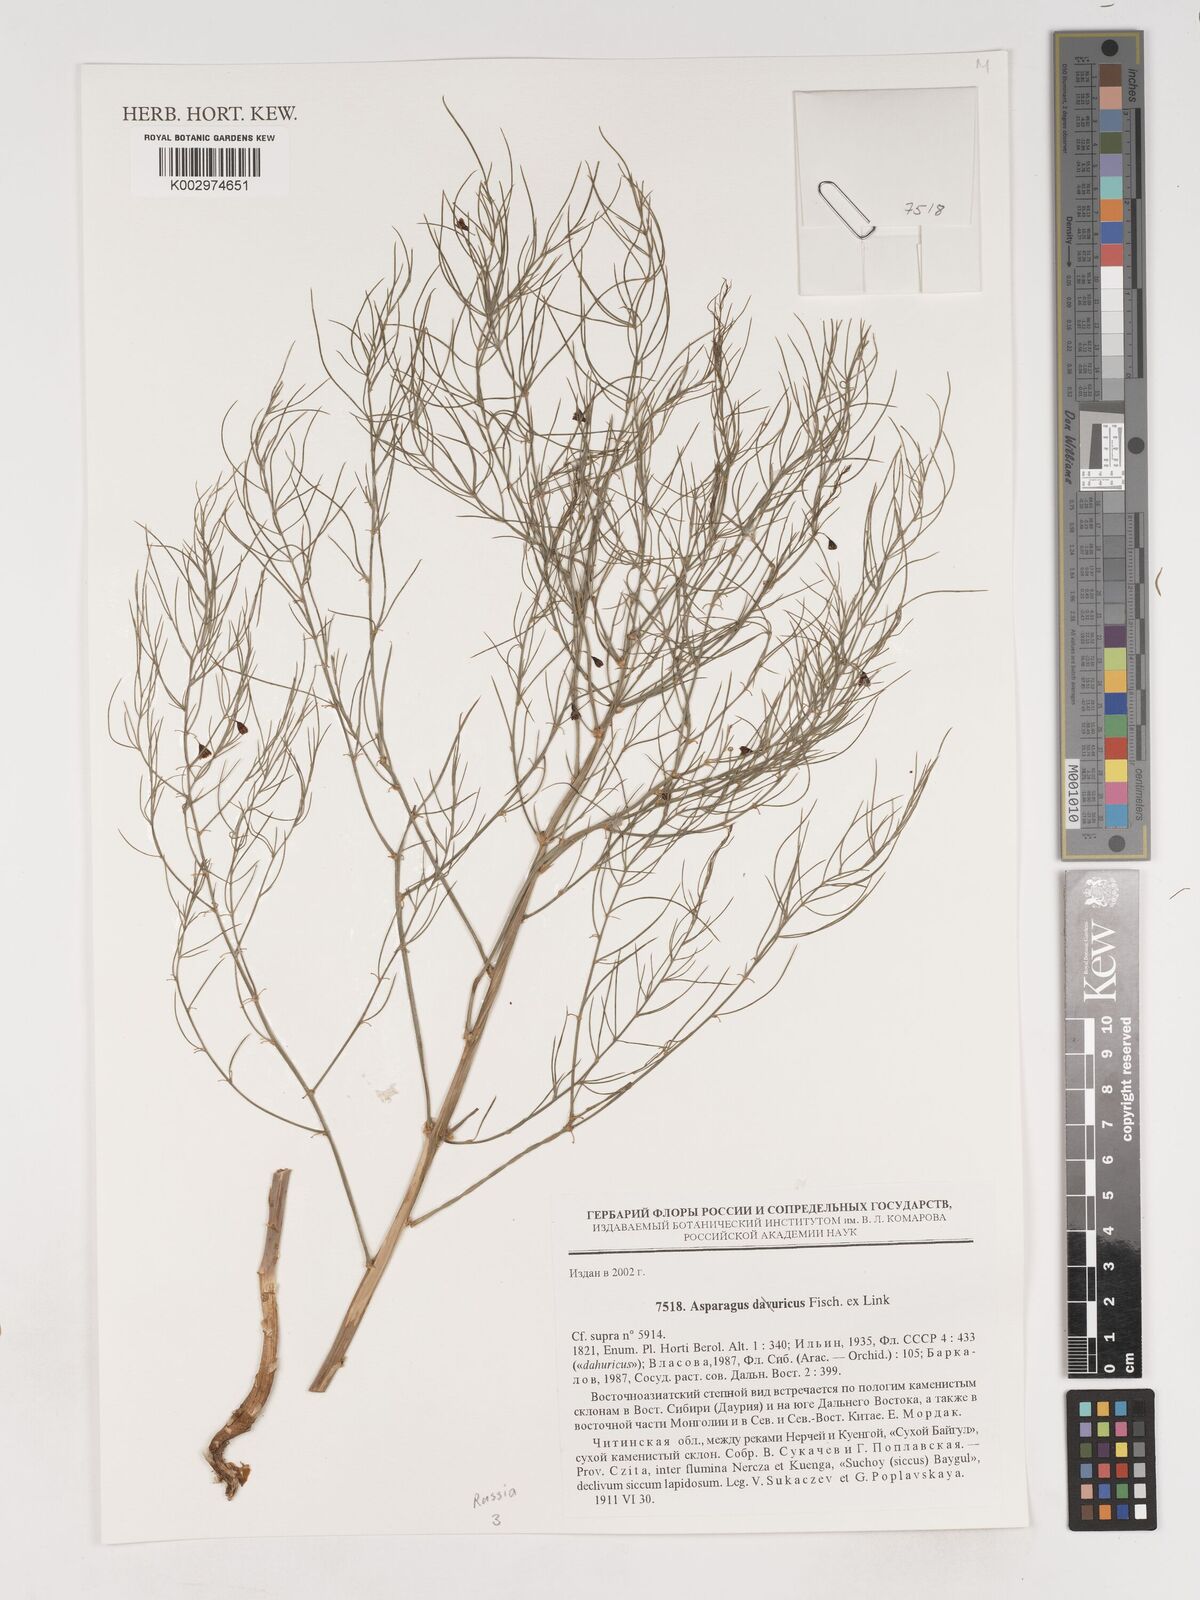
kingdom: Plantae
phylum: Tracheophyta
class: Liliopsida
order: Asparagales
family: Asparagaceae
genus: Asparagus
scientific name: Asparagus dauricus
